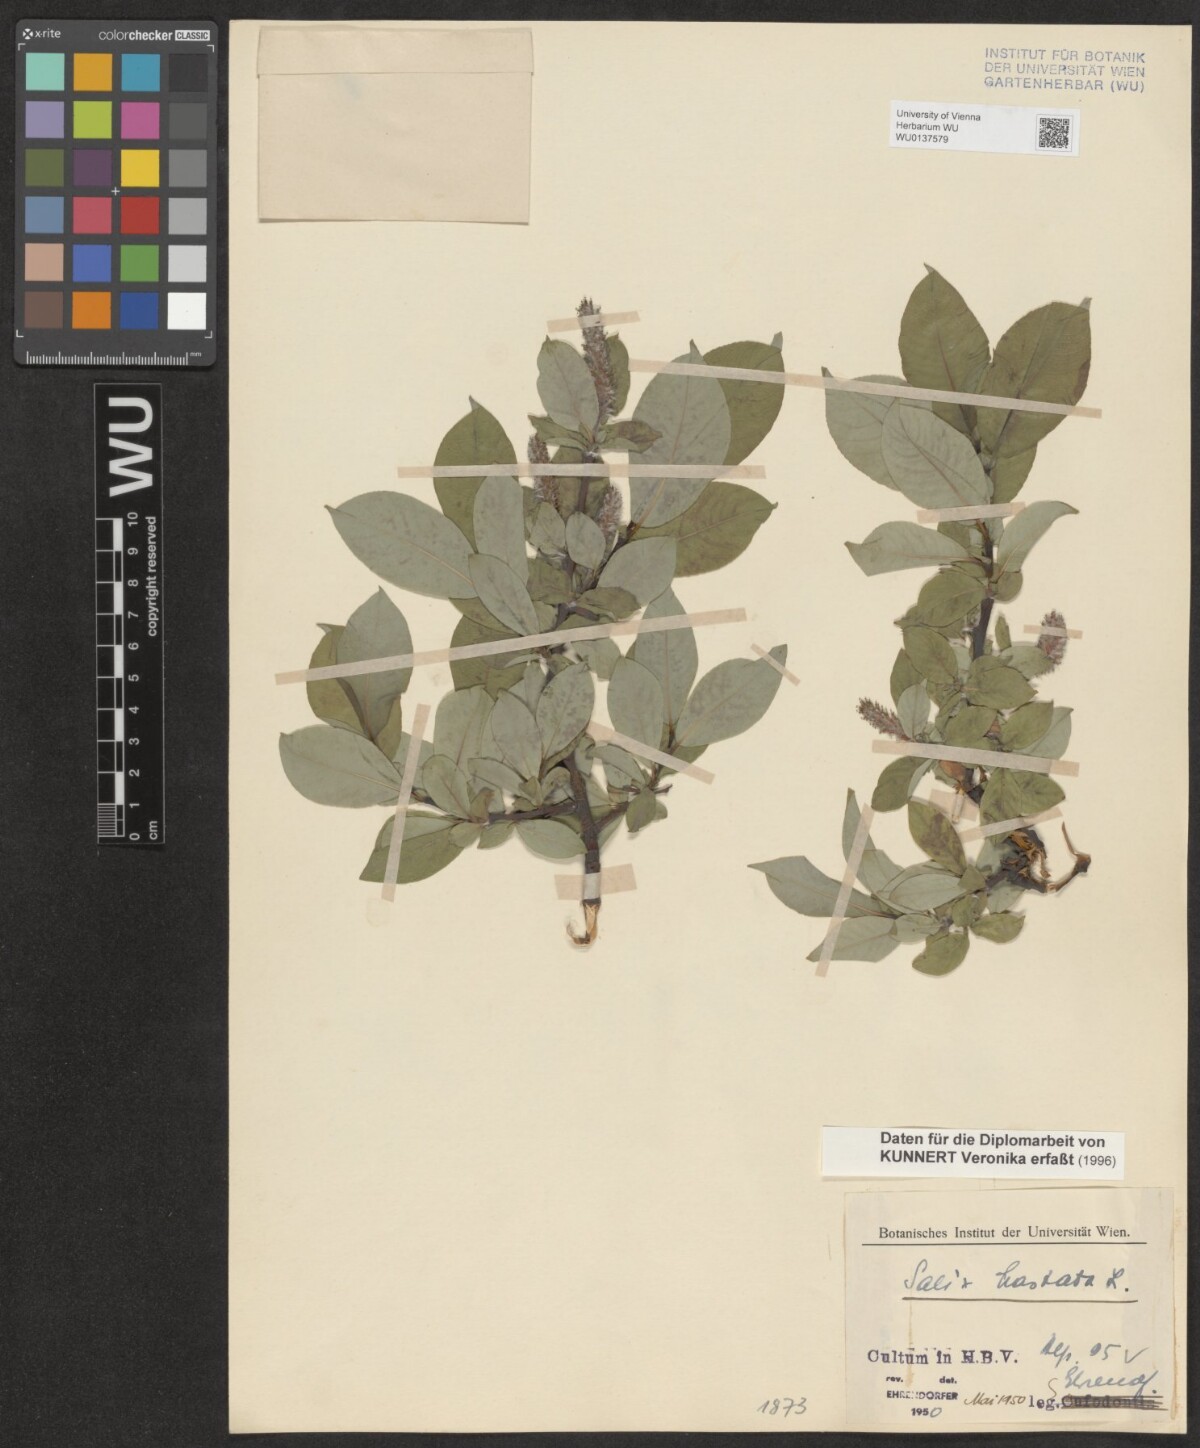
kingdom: Plantae
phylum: Tracheophyta
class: Magnoliopsida
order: Malpighiales
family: Salicaceae
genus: Salix
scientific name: Salix hastata
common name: Halberd willow
